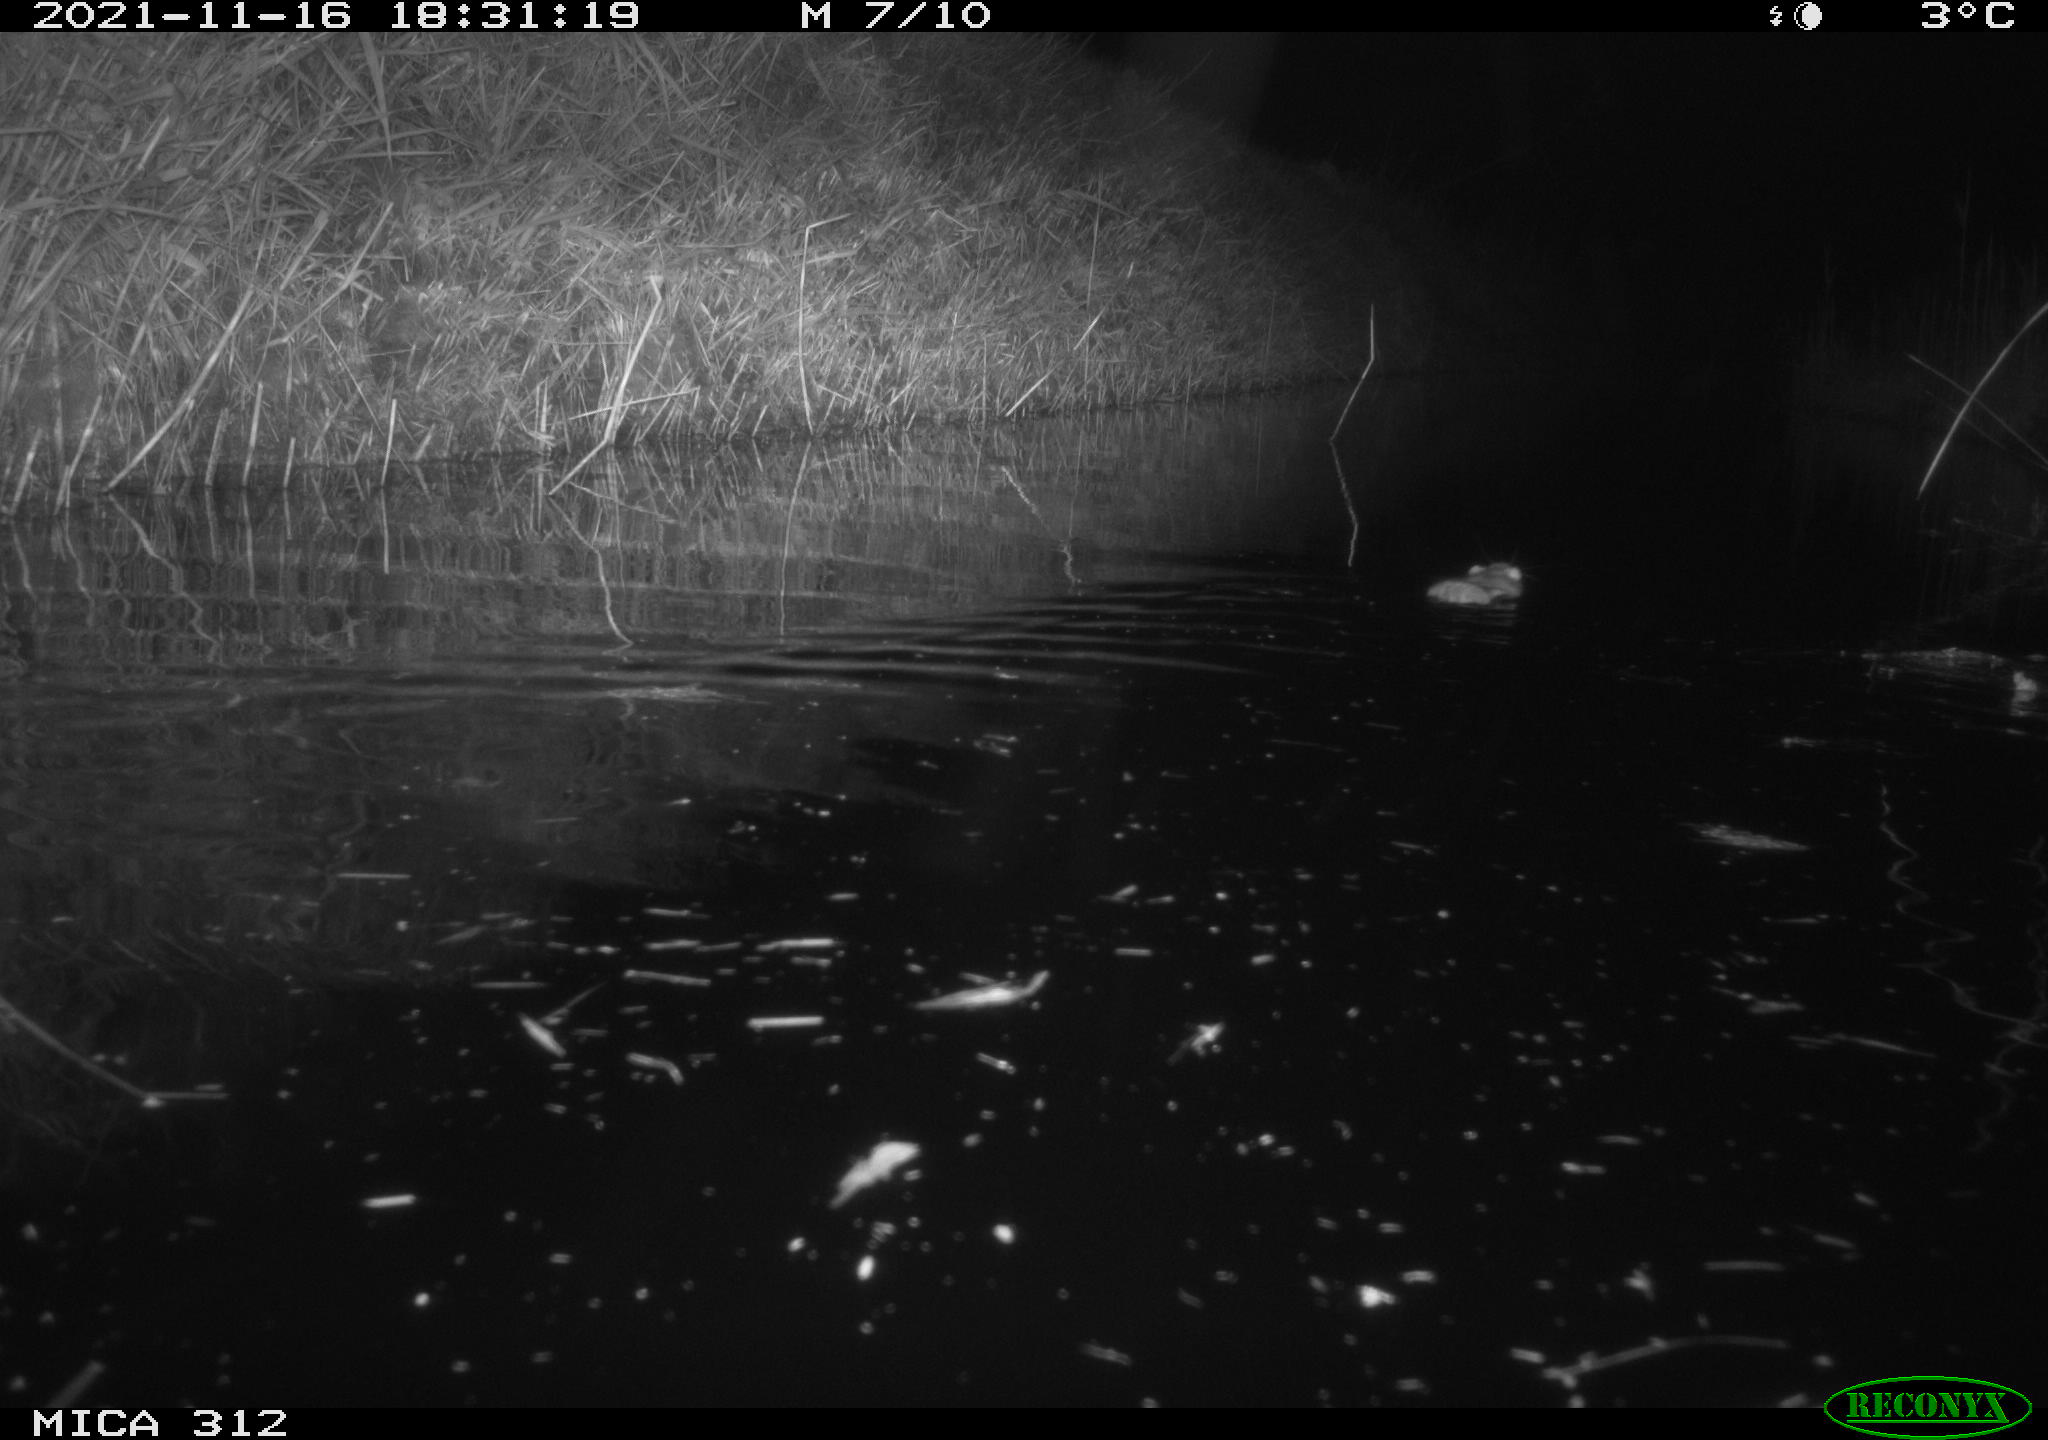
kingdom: Animalia
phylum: Chordata
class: Mammalia
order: Rodentia
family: Muridae
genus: Rattus
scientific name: Rattus norvegicus
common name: Brown rat
